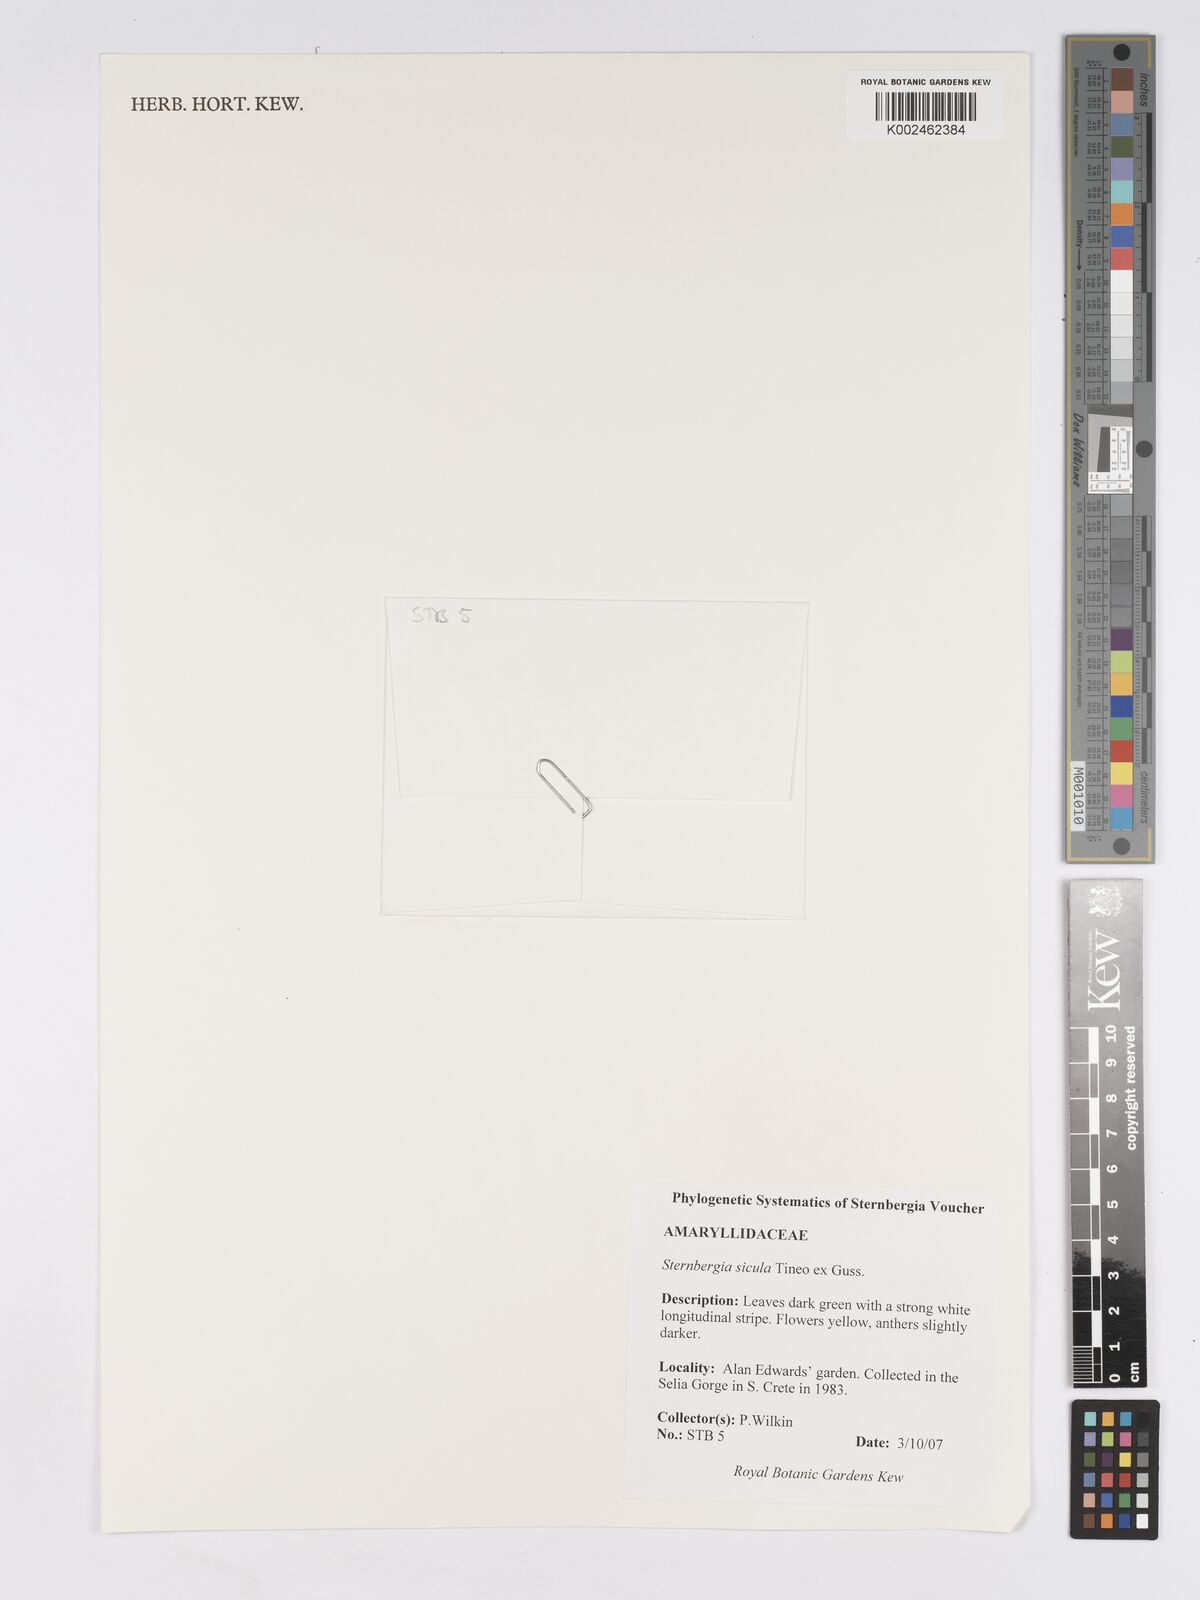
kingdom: Plantae
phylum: Tracheophyta
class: Liliopsida
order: Asparagales
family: Amaryllidaceae
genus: Sternbergia
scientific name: Sternbergia lutea
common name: Winter daffodil
